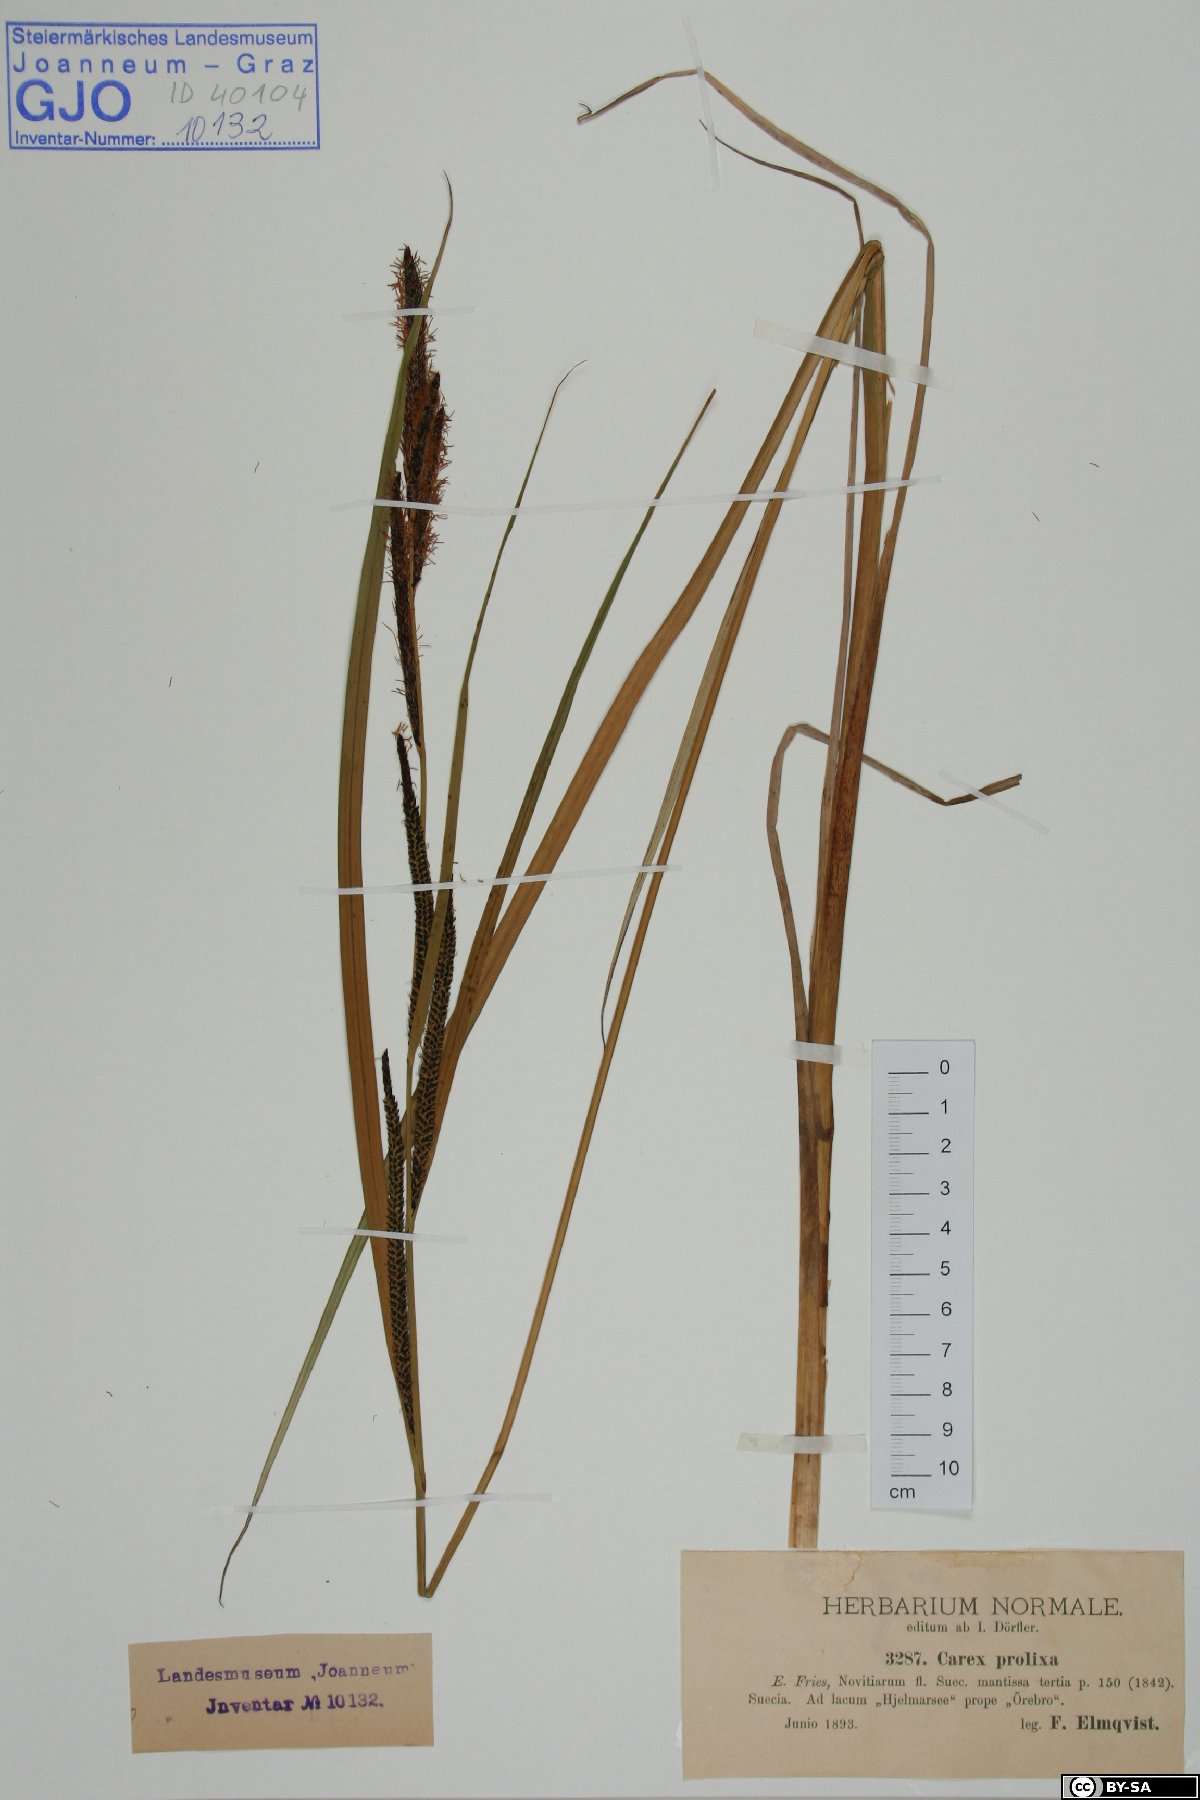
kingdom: Plantae
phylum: Tracheophyta
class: Liliopsida
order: Poales
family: Cyperaceae
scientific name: Cyperaceae
